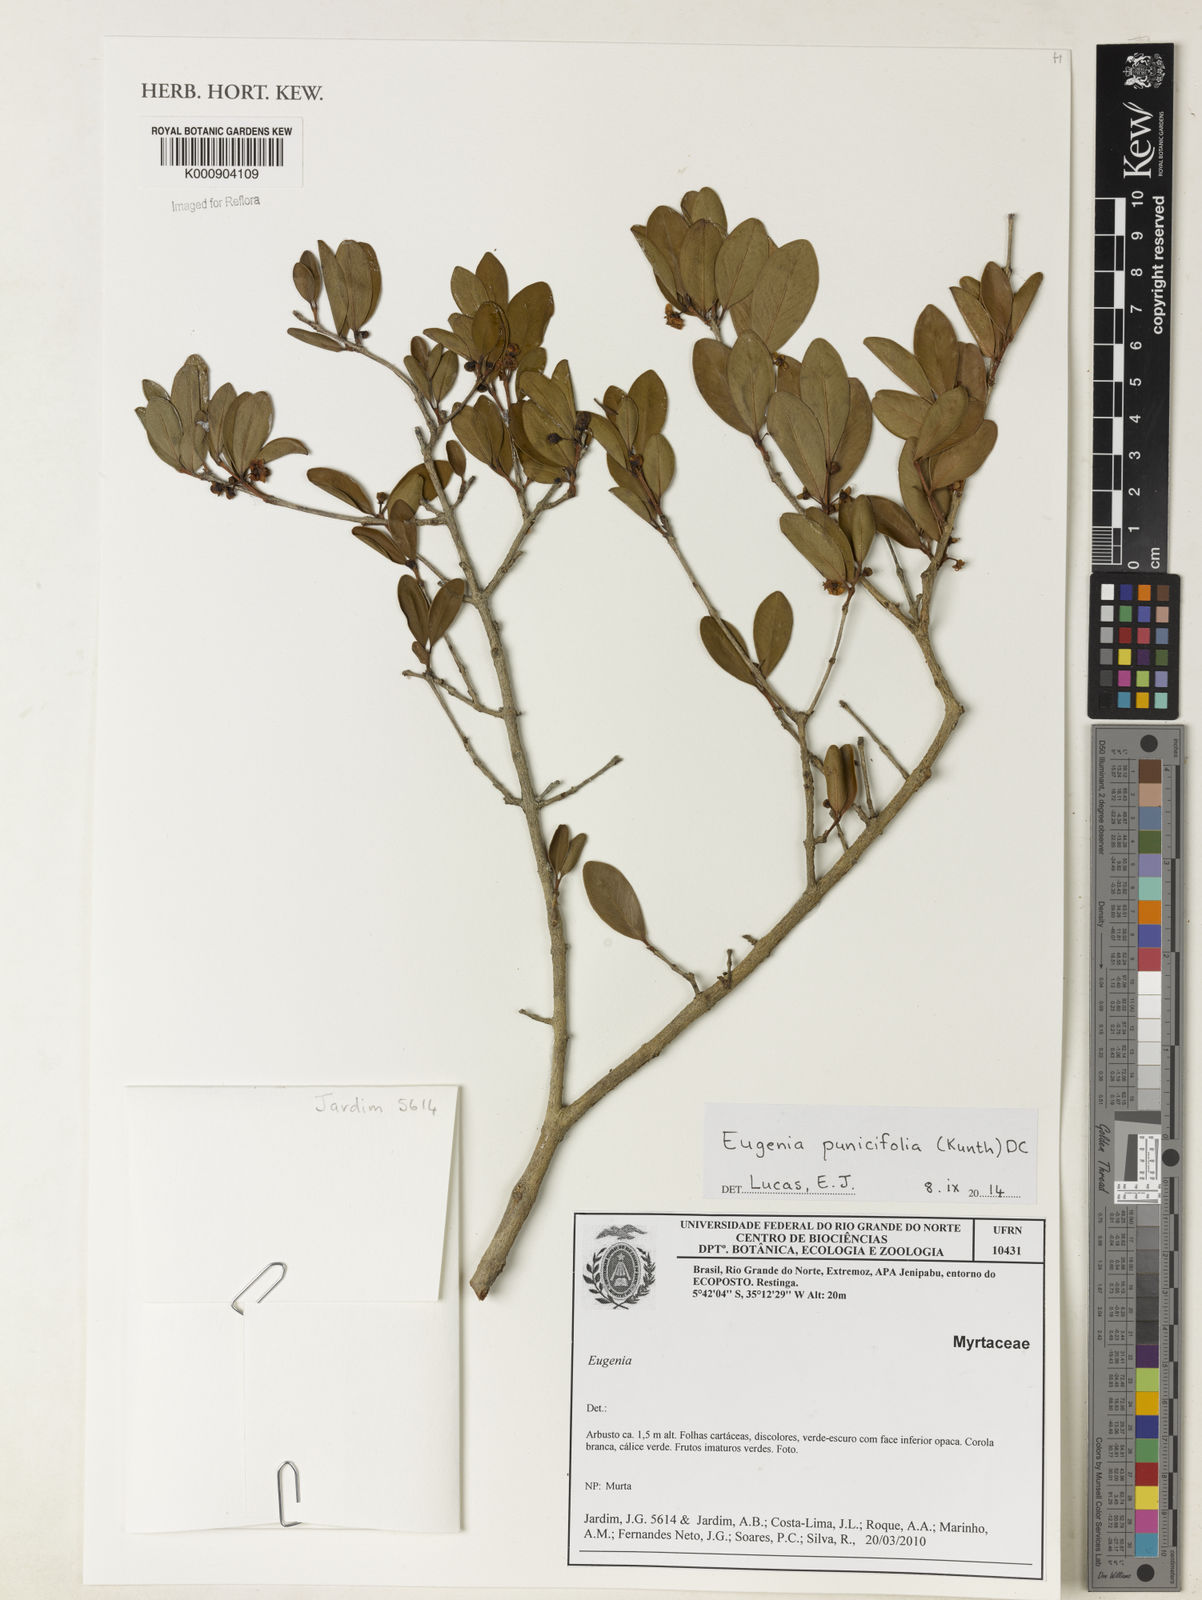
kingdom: Plantae
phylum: Tracheophyta
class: Magnoliopsida
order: Myrtales
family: Myrtaceae
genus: Eugenia
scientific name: Eugenia punicifolia
